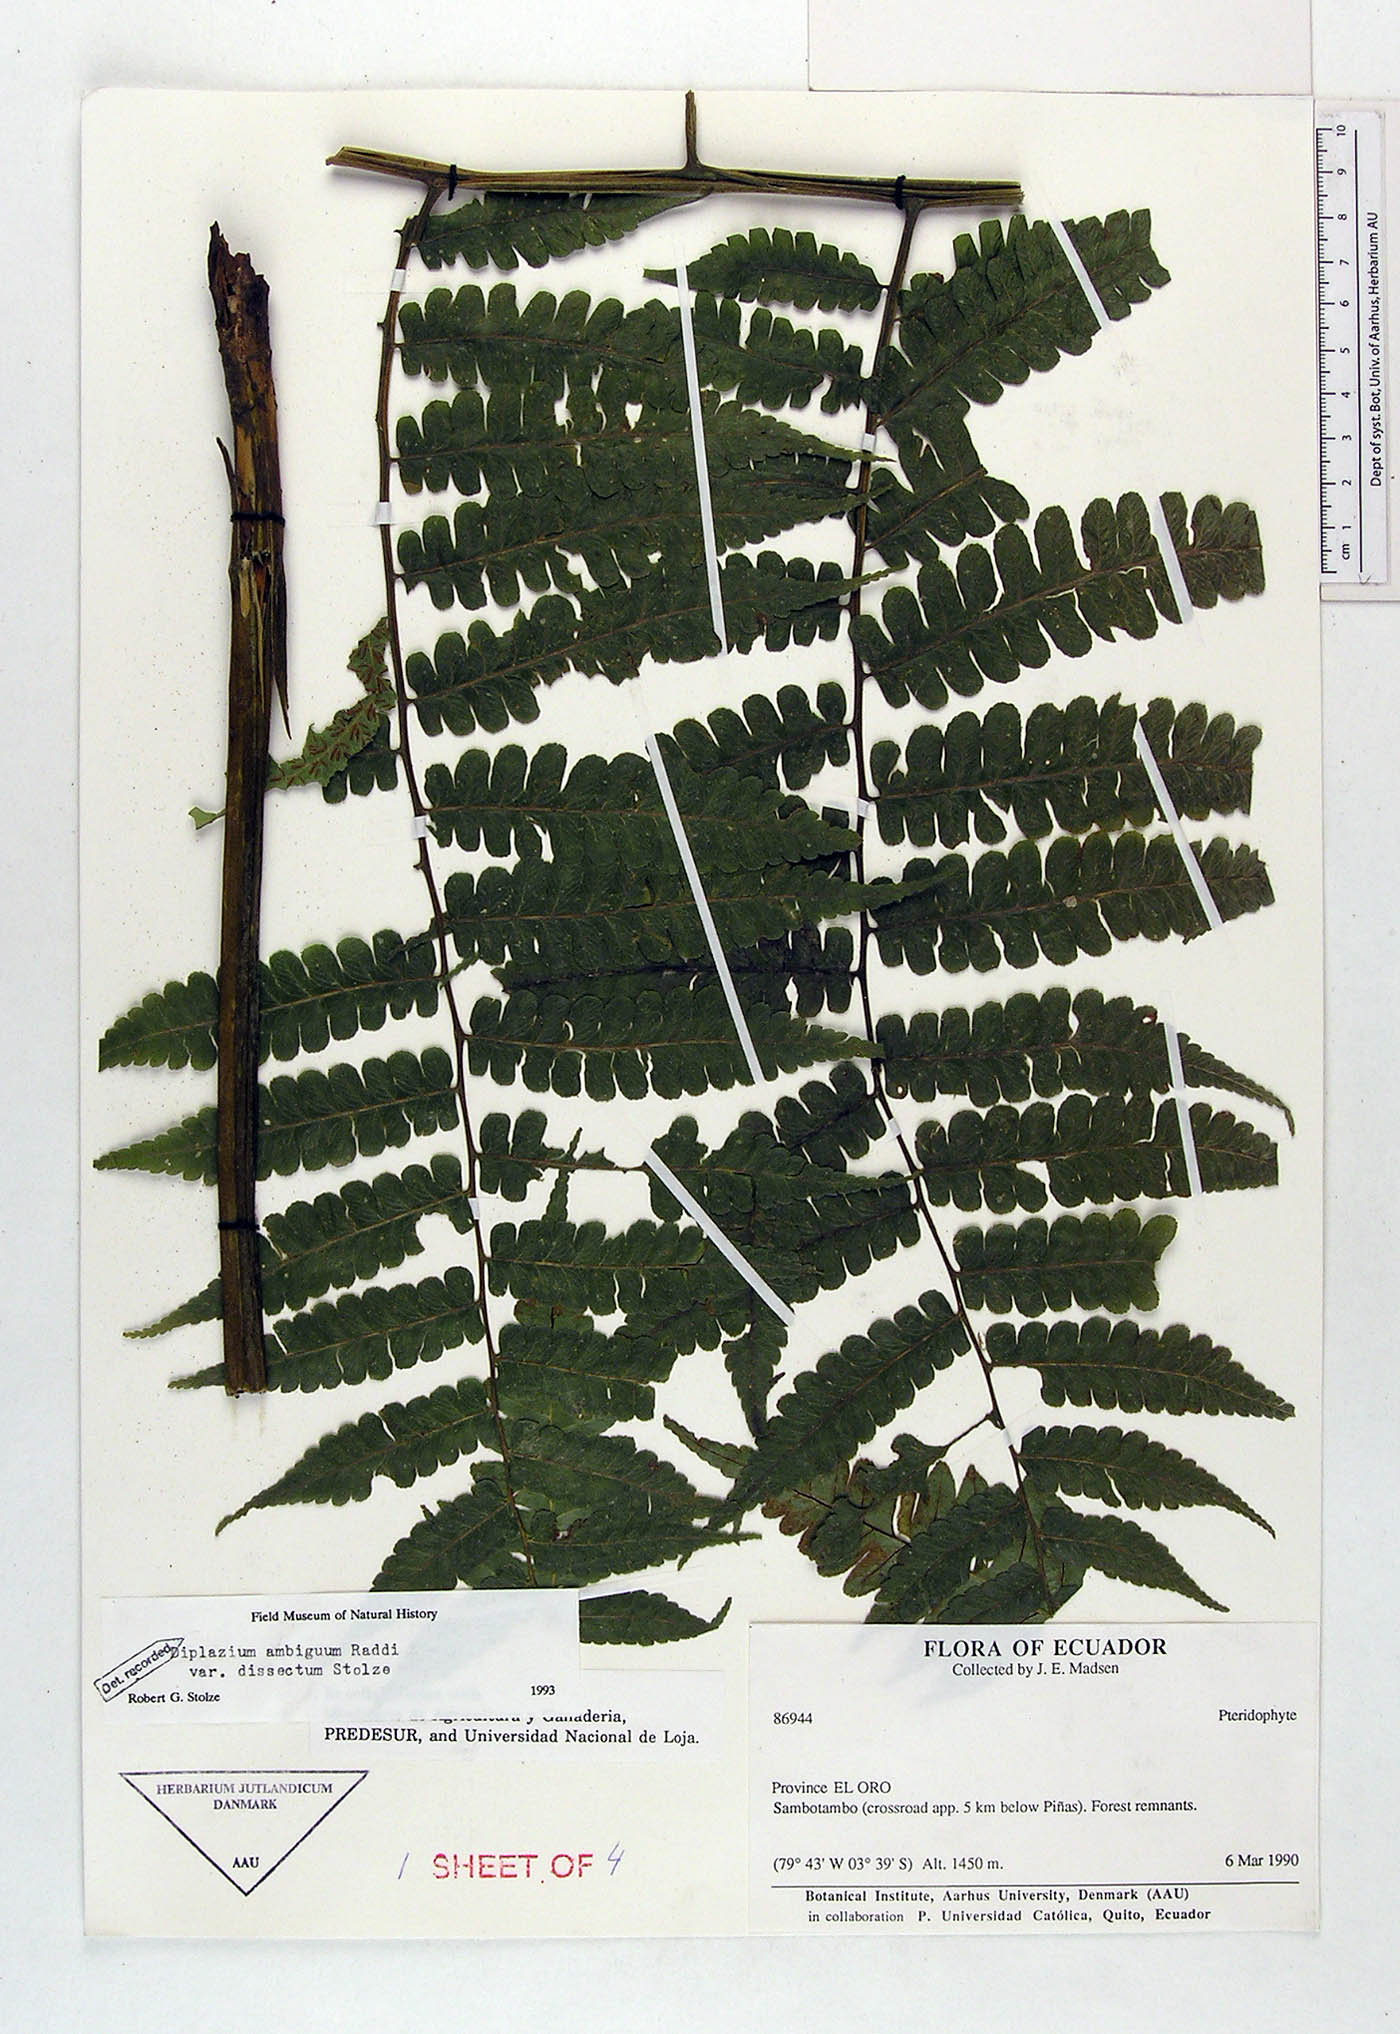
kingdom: Plantae
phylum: Tracheophyta
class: Polypodiopsida
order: Polypodiales
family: Athyriaceae
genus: Diplazium
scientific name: Diplazium ambiguum
